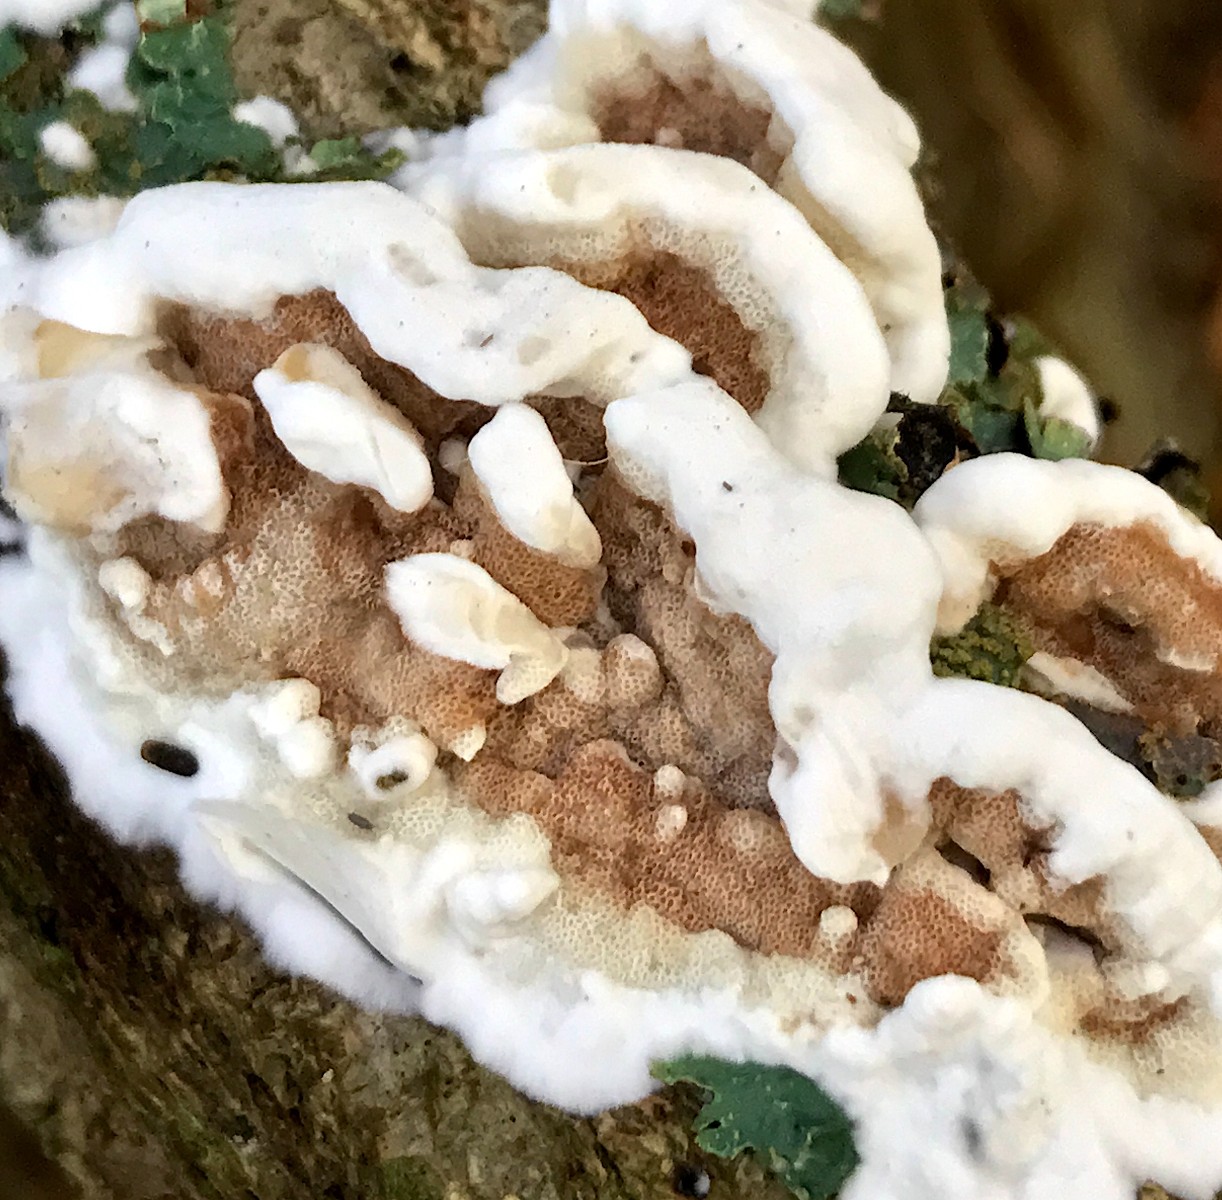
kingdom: Fungi
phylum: Basidiomycota
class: Agaricomycetes
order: Polyporales
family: Irpicaceae
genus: Vitreoporus
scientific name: Vitreoporus dichrous
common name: tofarvet foldporesvamp
